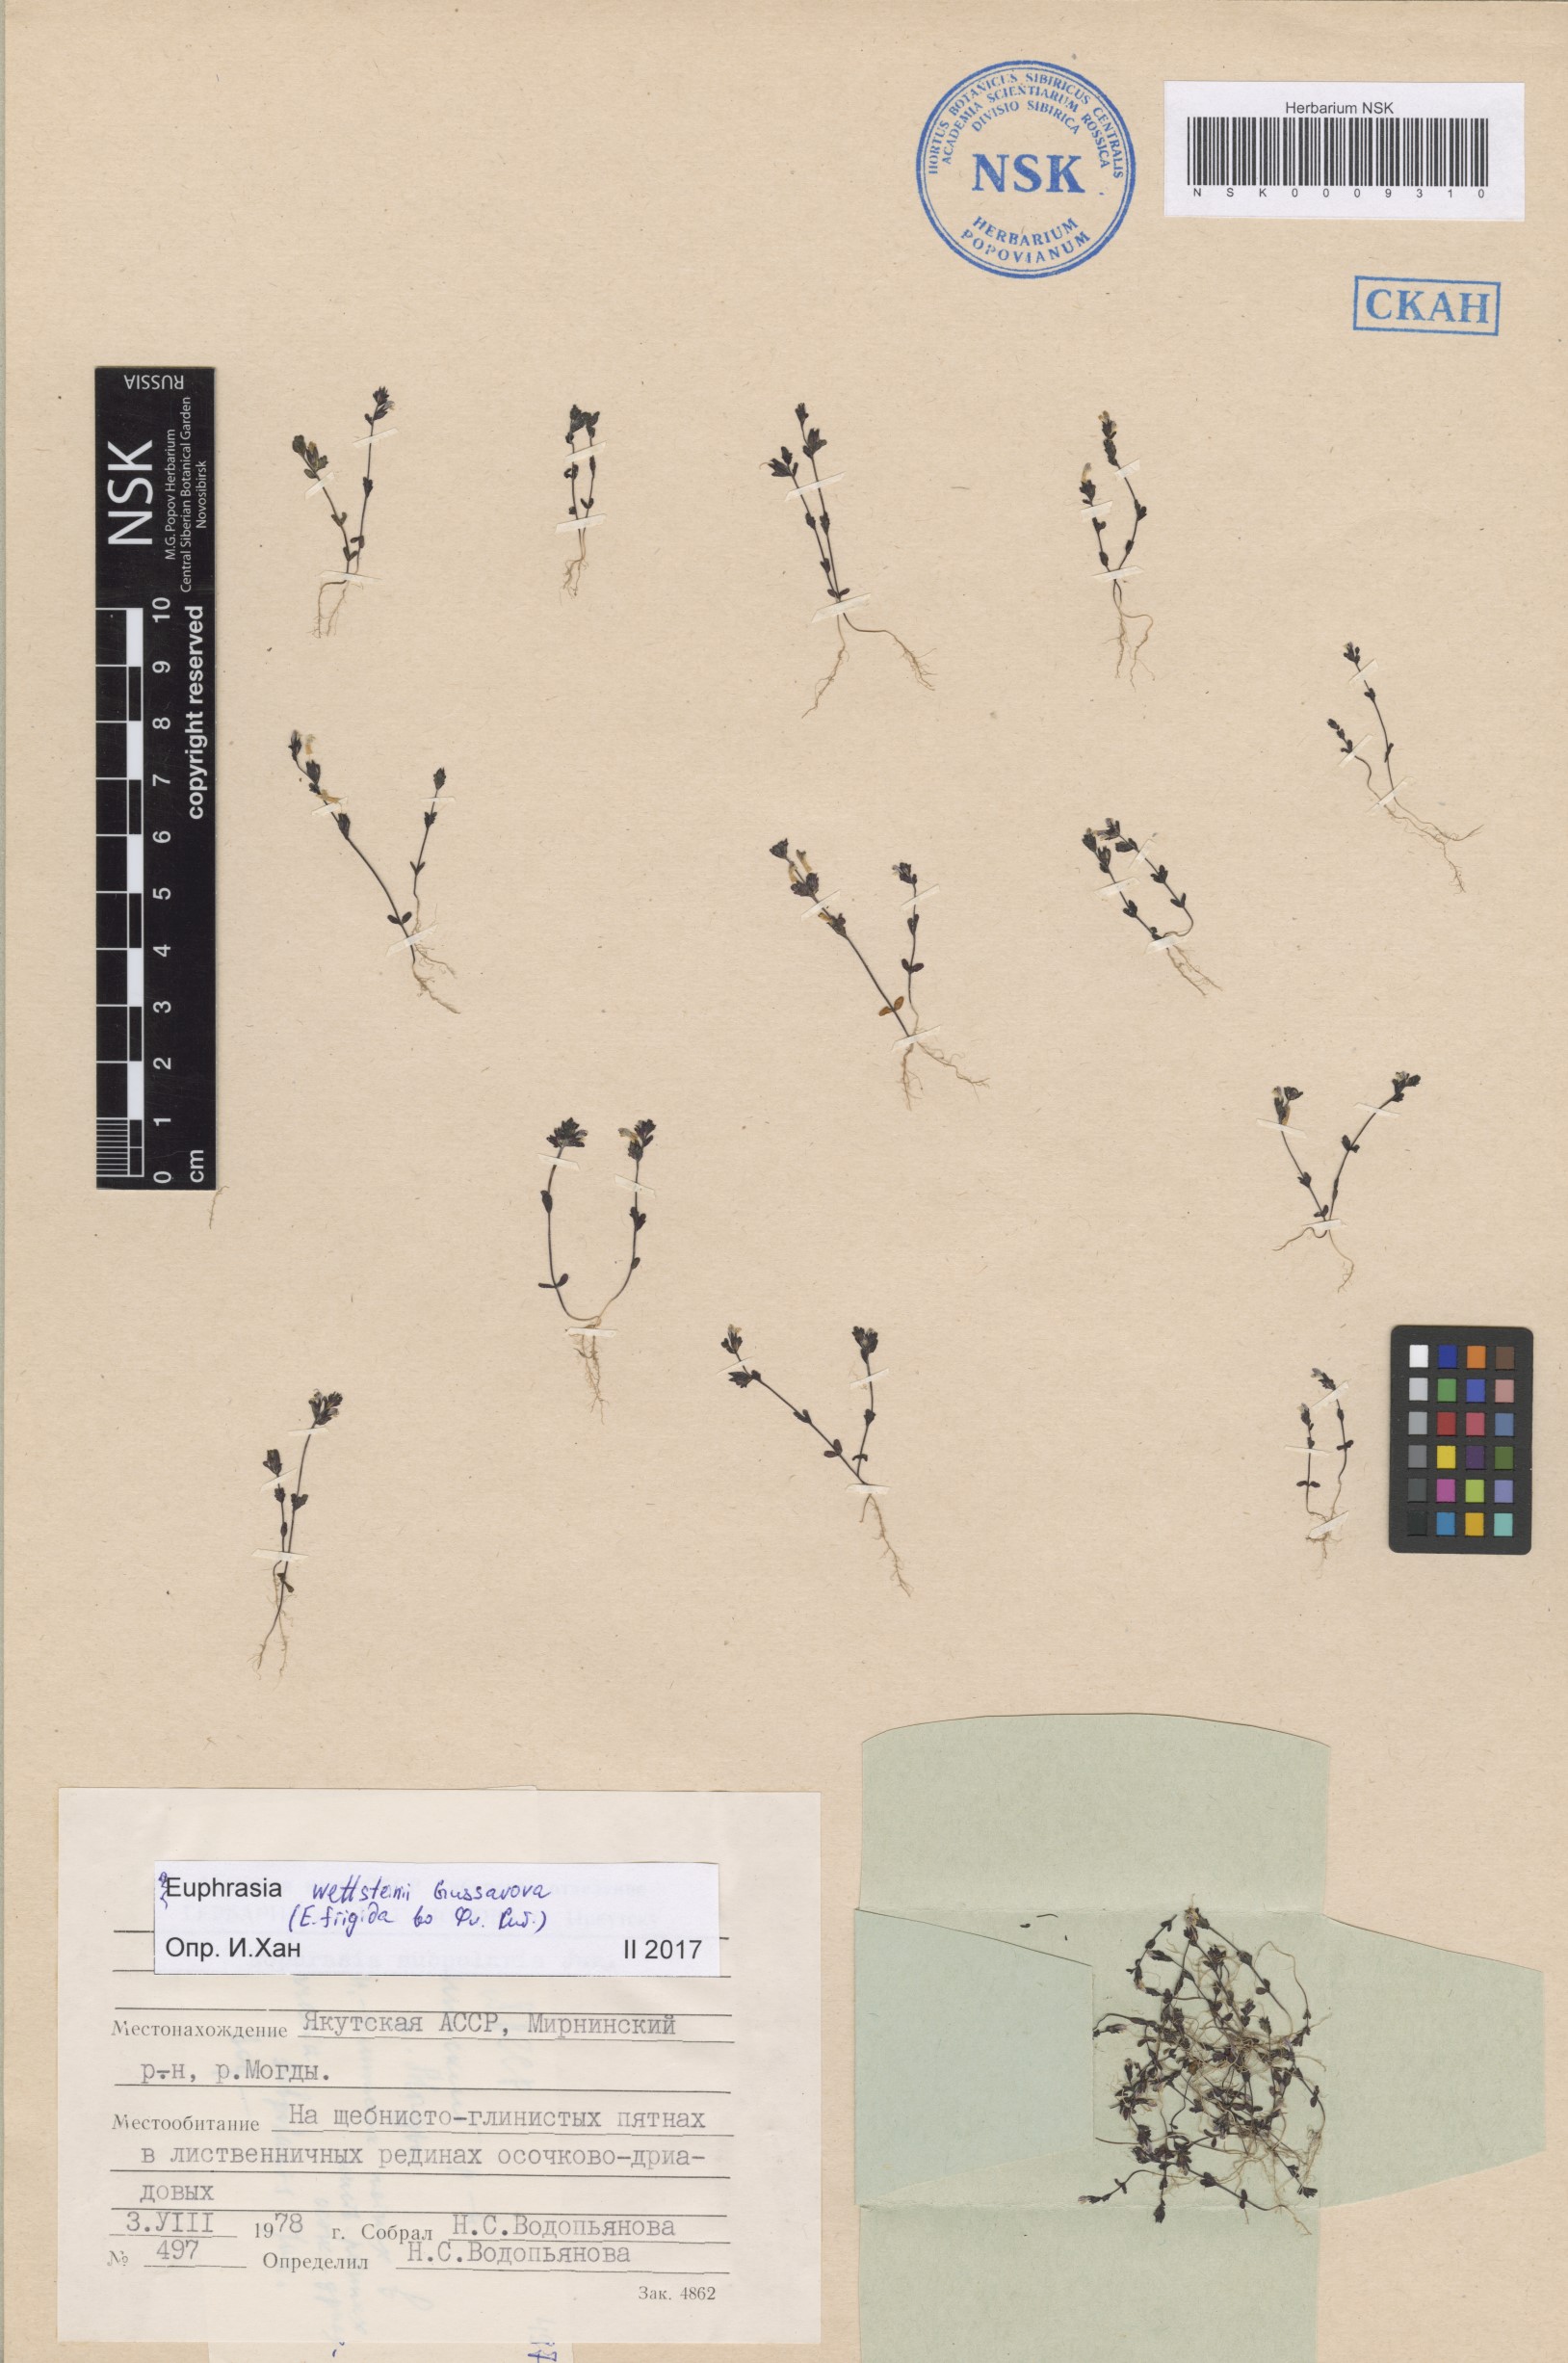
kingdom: Plantae
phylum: Tracheophyta
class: Magnoliopsida
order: Lamiales
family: Orobanchaceae
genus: Euphrasia
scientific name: Euphrasia wettsteinii
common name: Wettstein's eyebright
